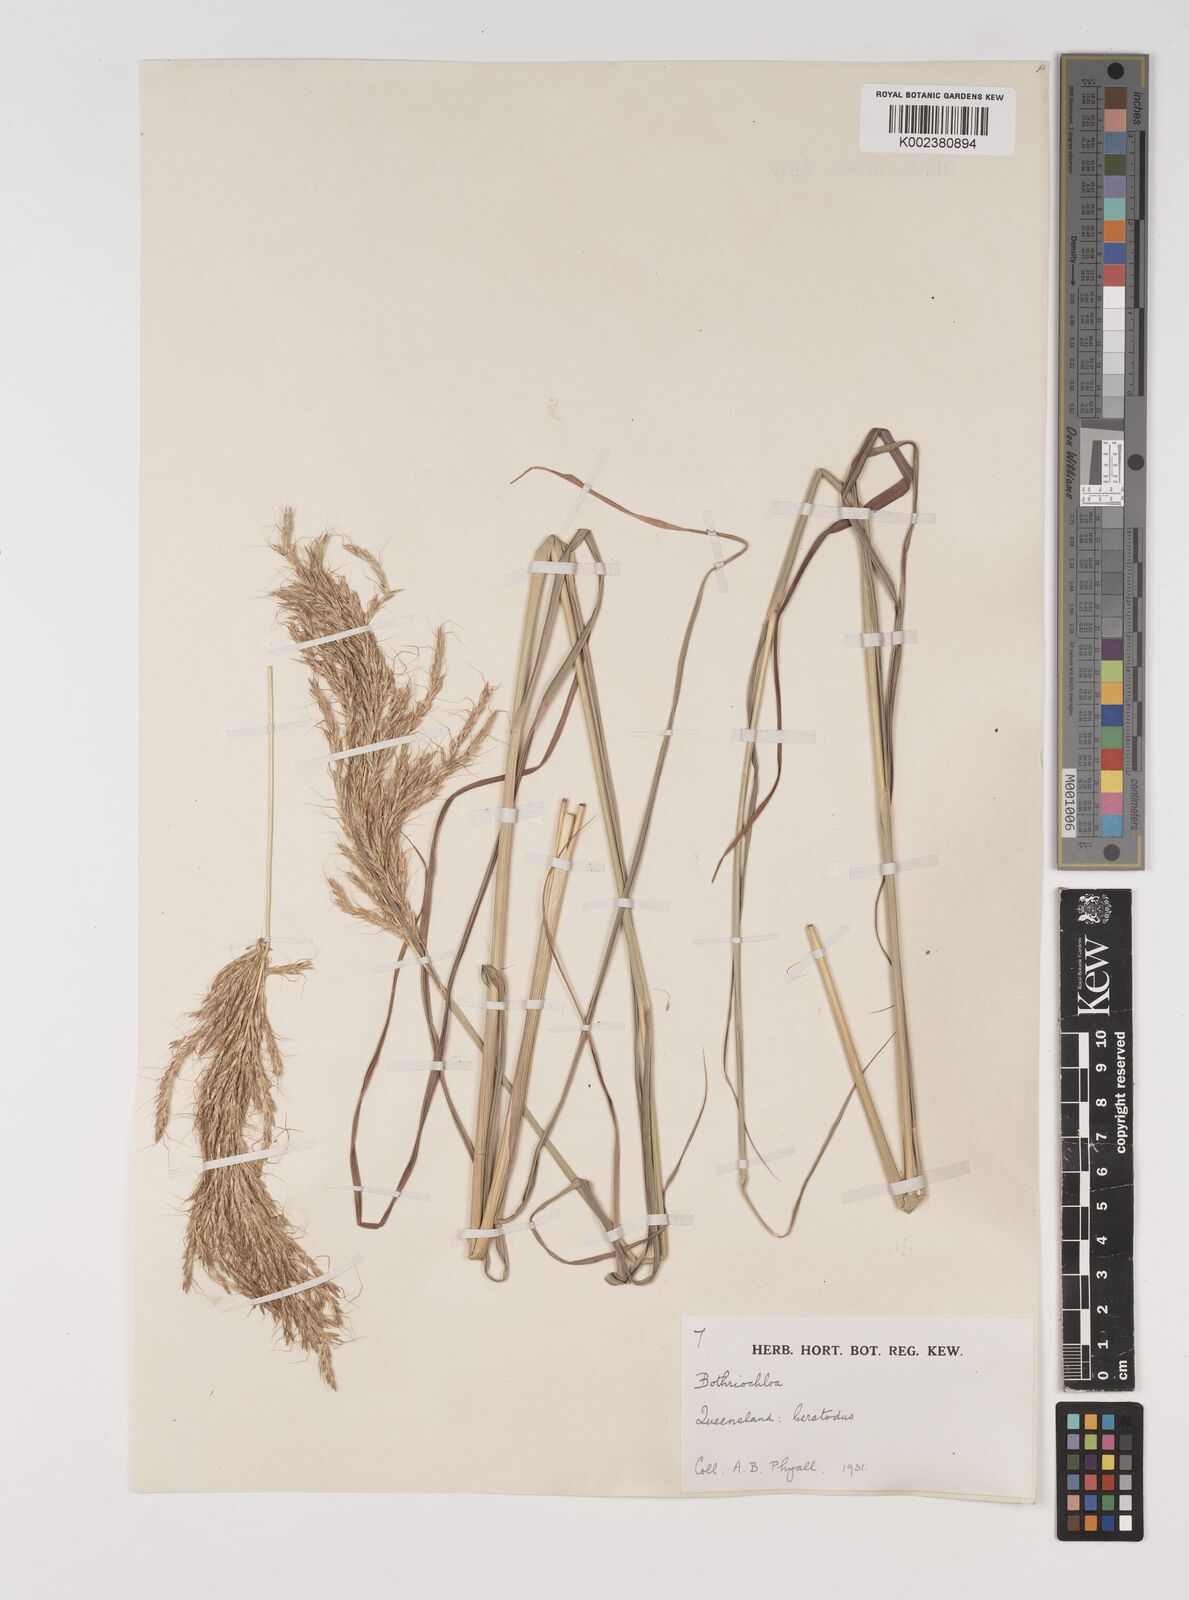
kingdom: Plantae
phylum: Tracheophyta
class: Liliopsida
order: Poales
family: Poaceae
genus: Bothriochloa
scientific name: Bothriochloa bladhii
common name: Caucasian bluestem
